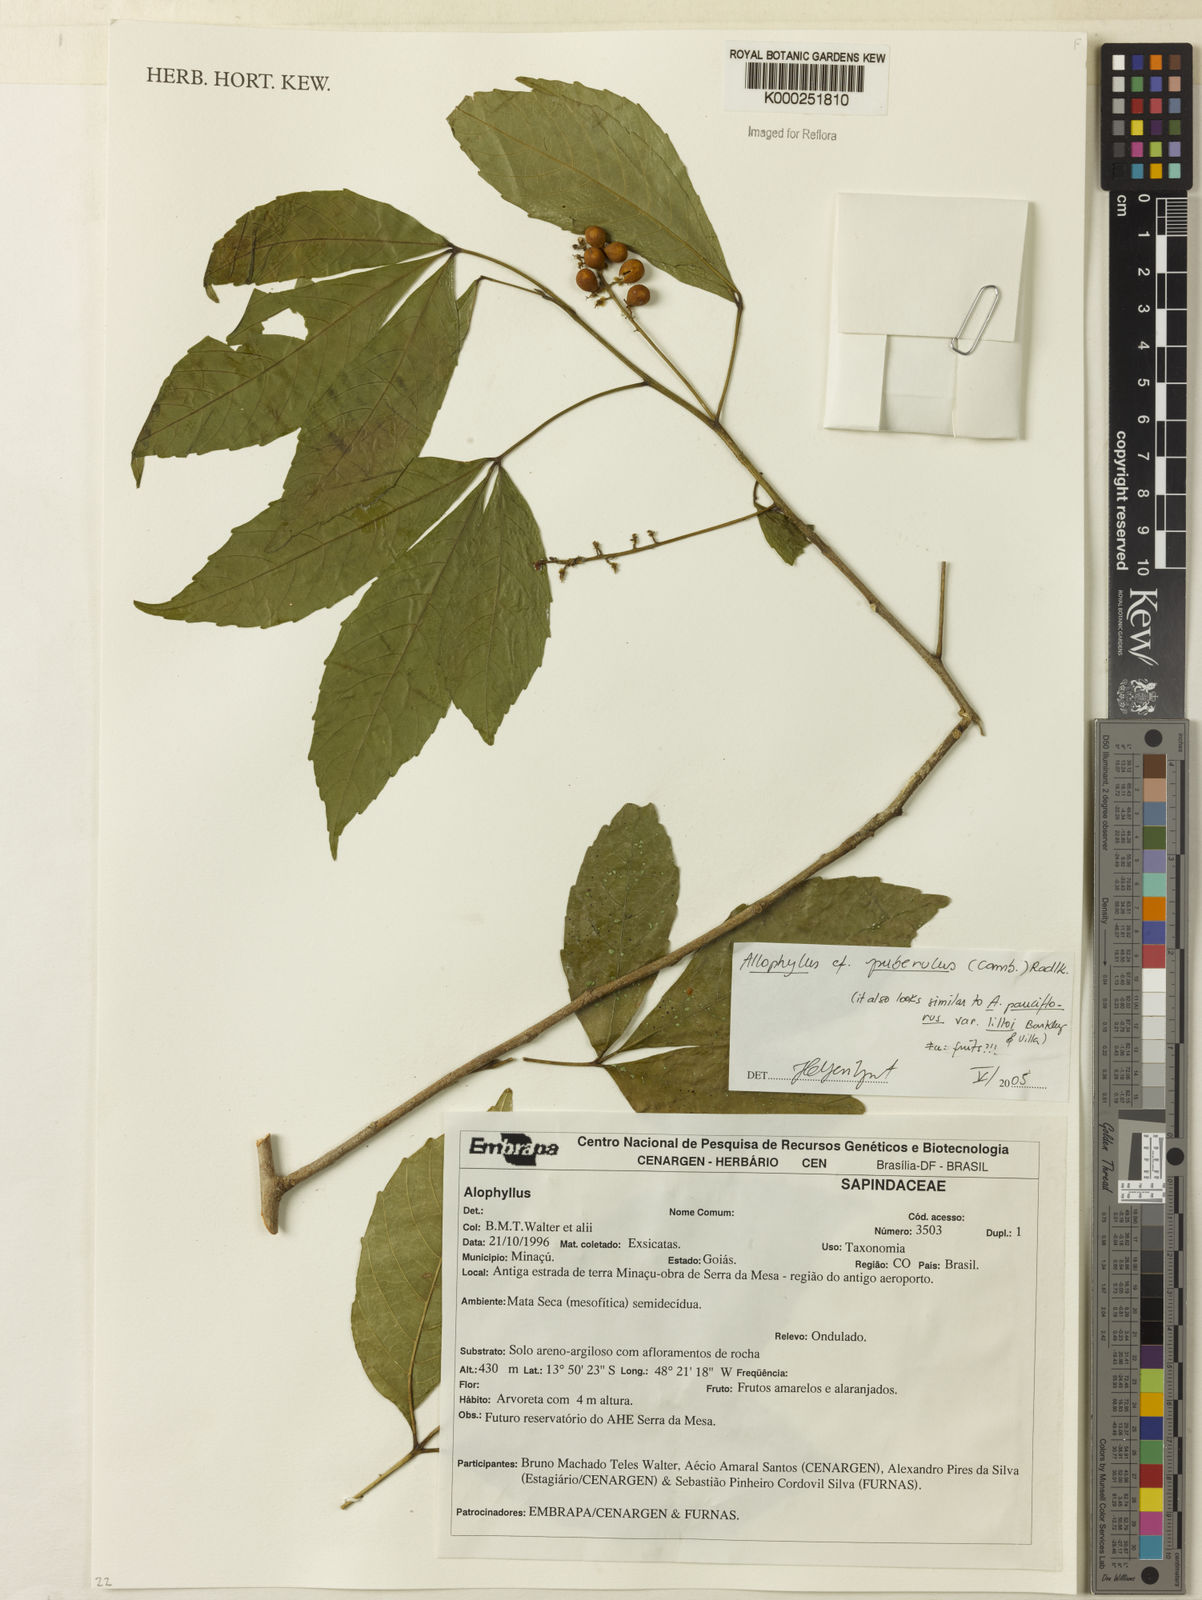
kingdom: Plantae
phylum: Tracheophyta
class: Magnoliopsida
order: Sapindales
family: Sapindaceae
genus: Allophylus
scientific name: Allophylus puberulus
